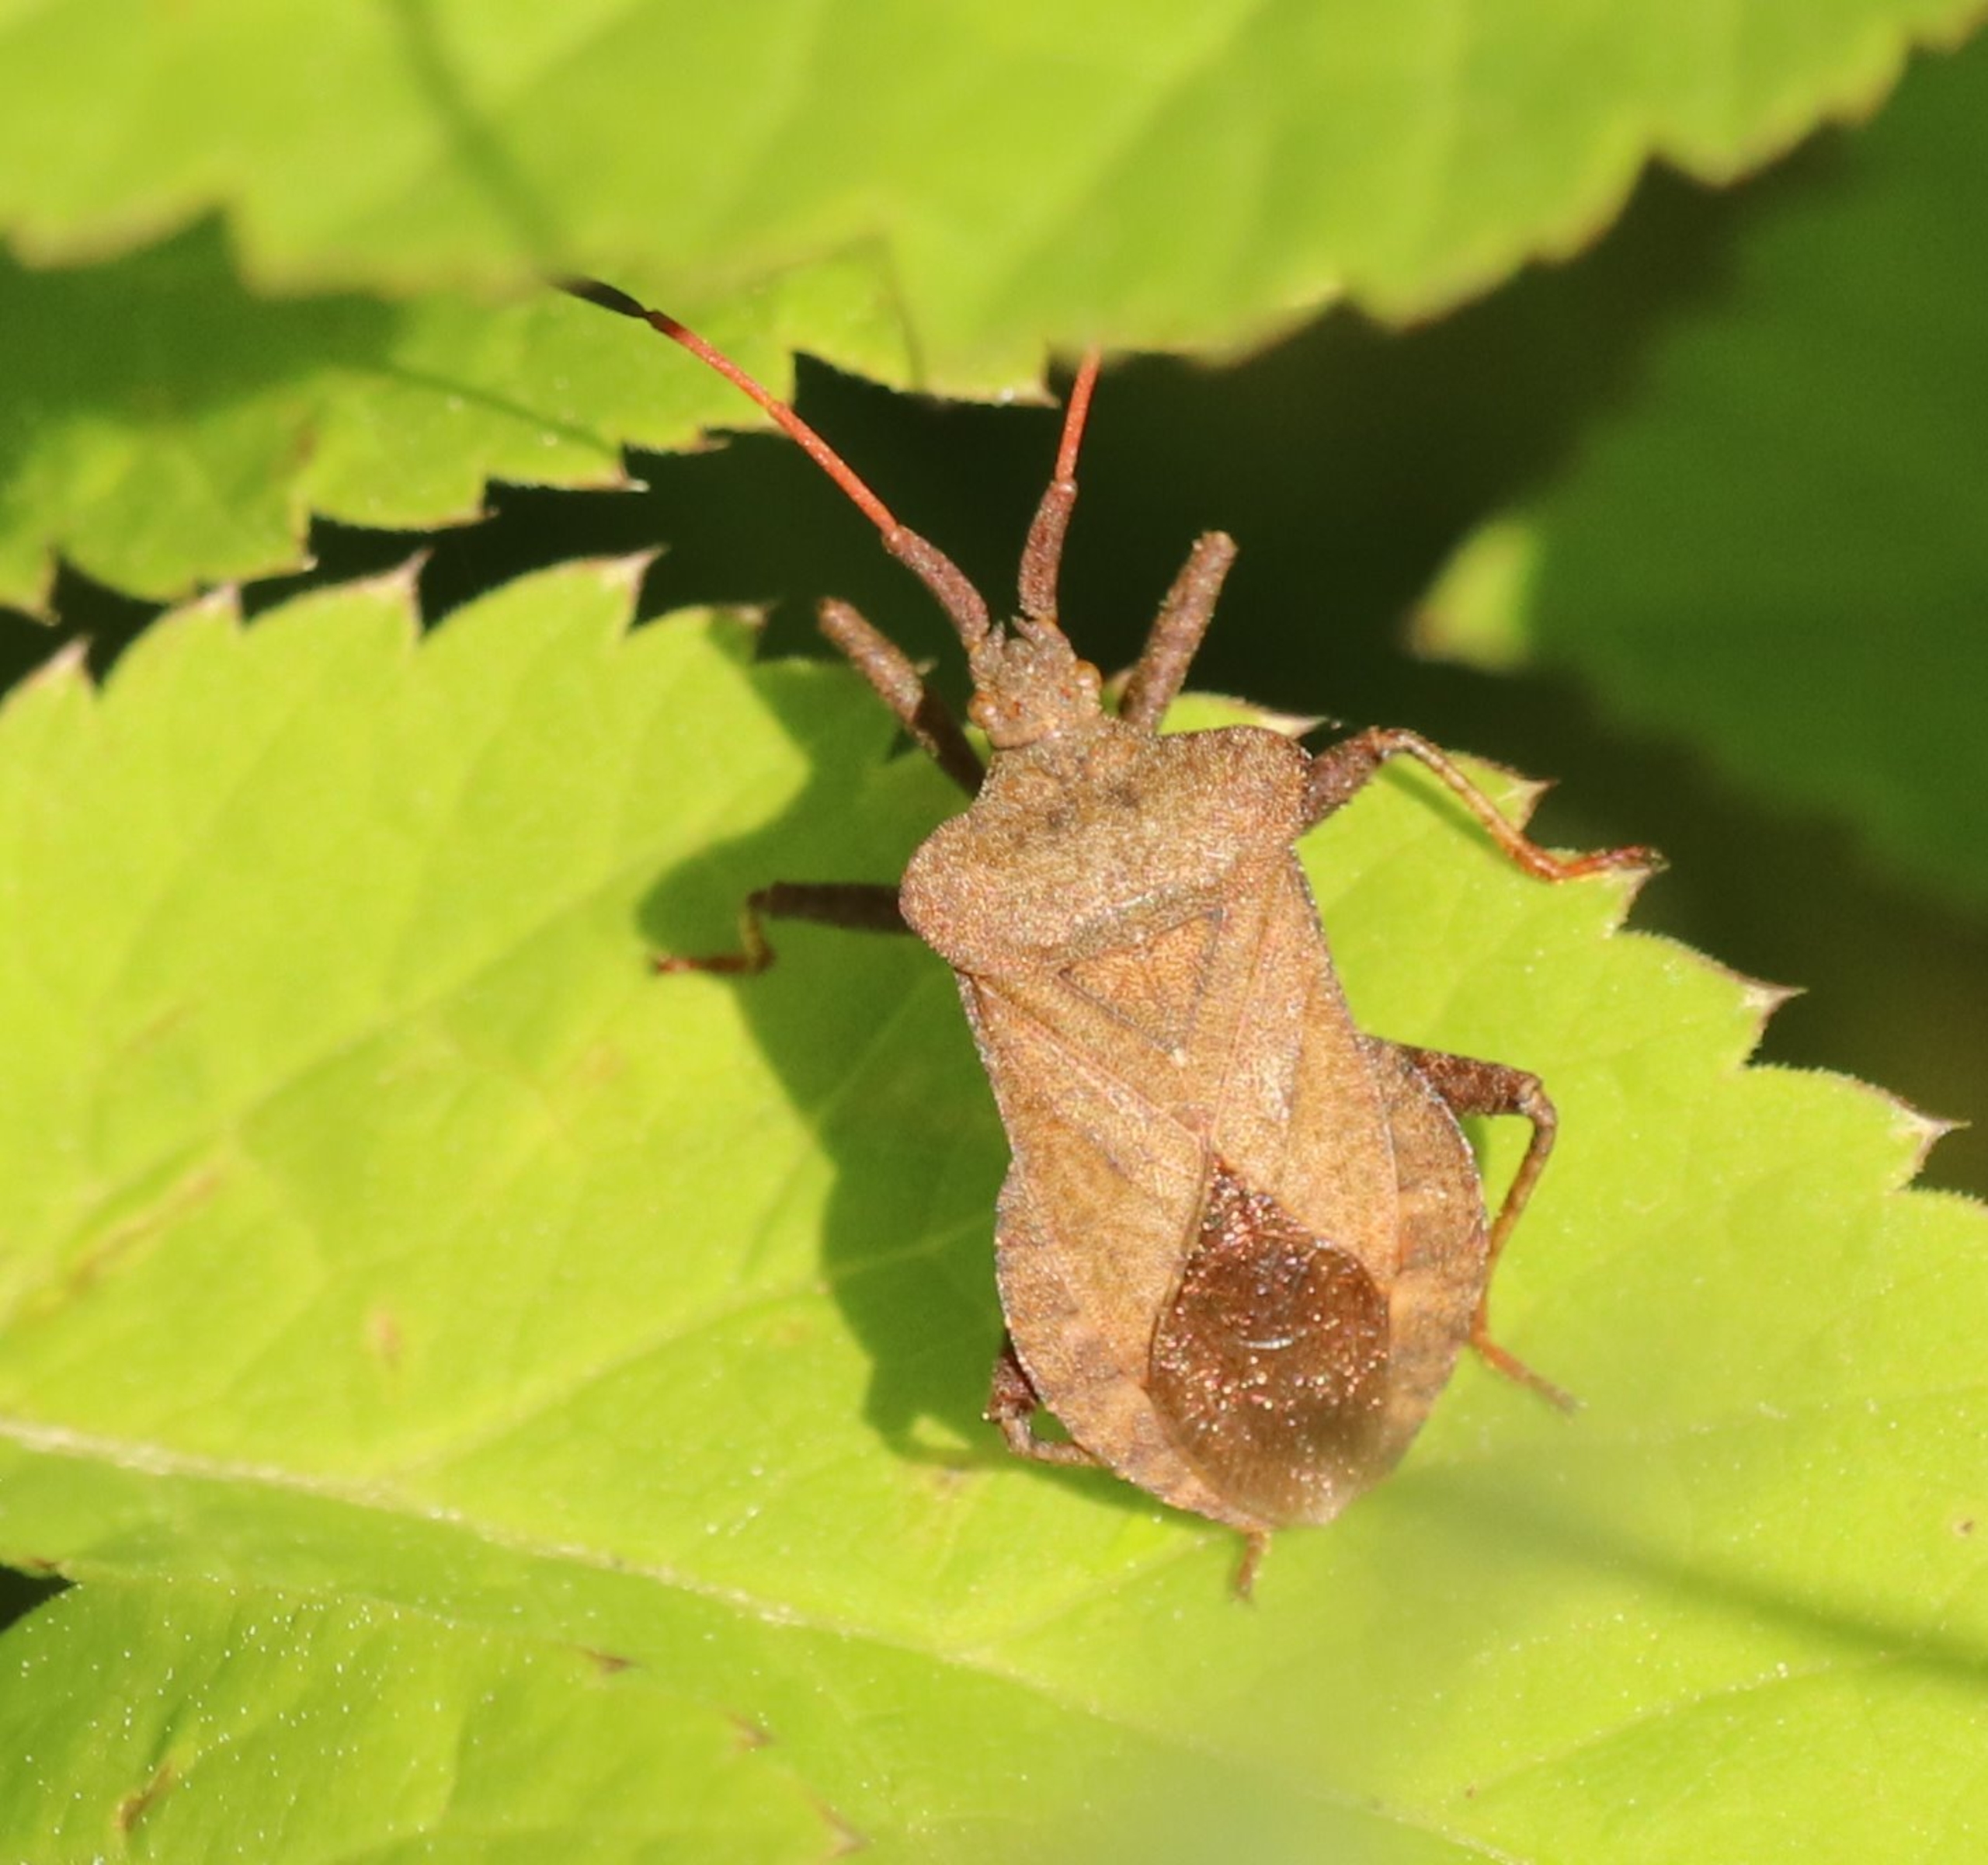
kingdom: Animalia
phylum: Arthropoda
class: Insecta
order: Hemiptera
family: Coreidae
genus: Coreus
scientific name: Coreus marginatus
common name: Skræppetæge
